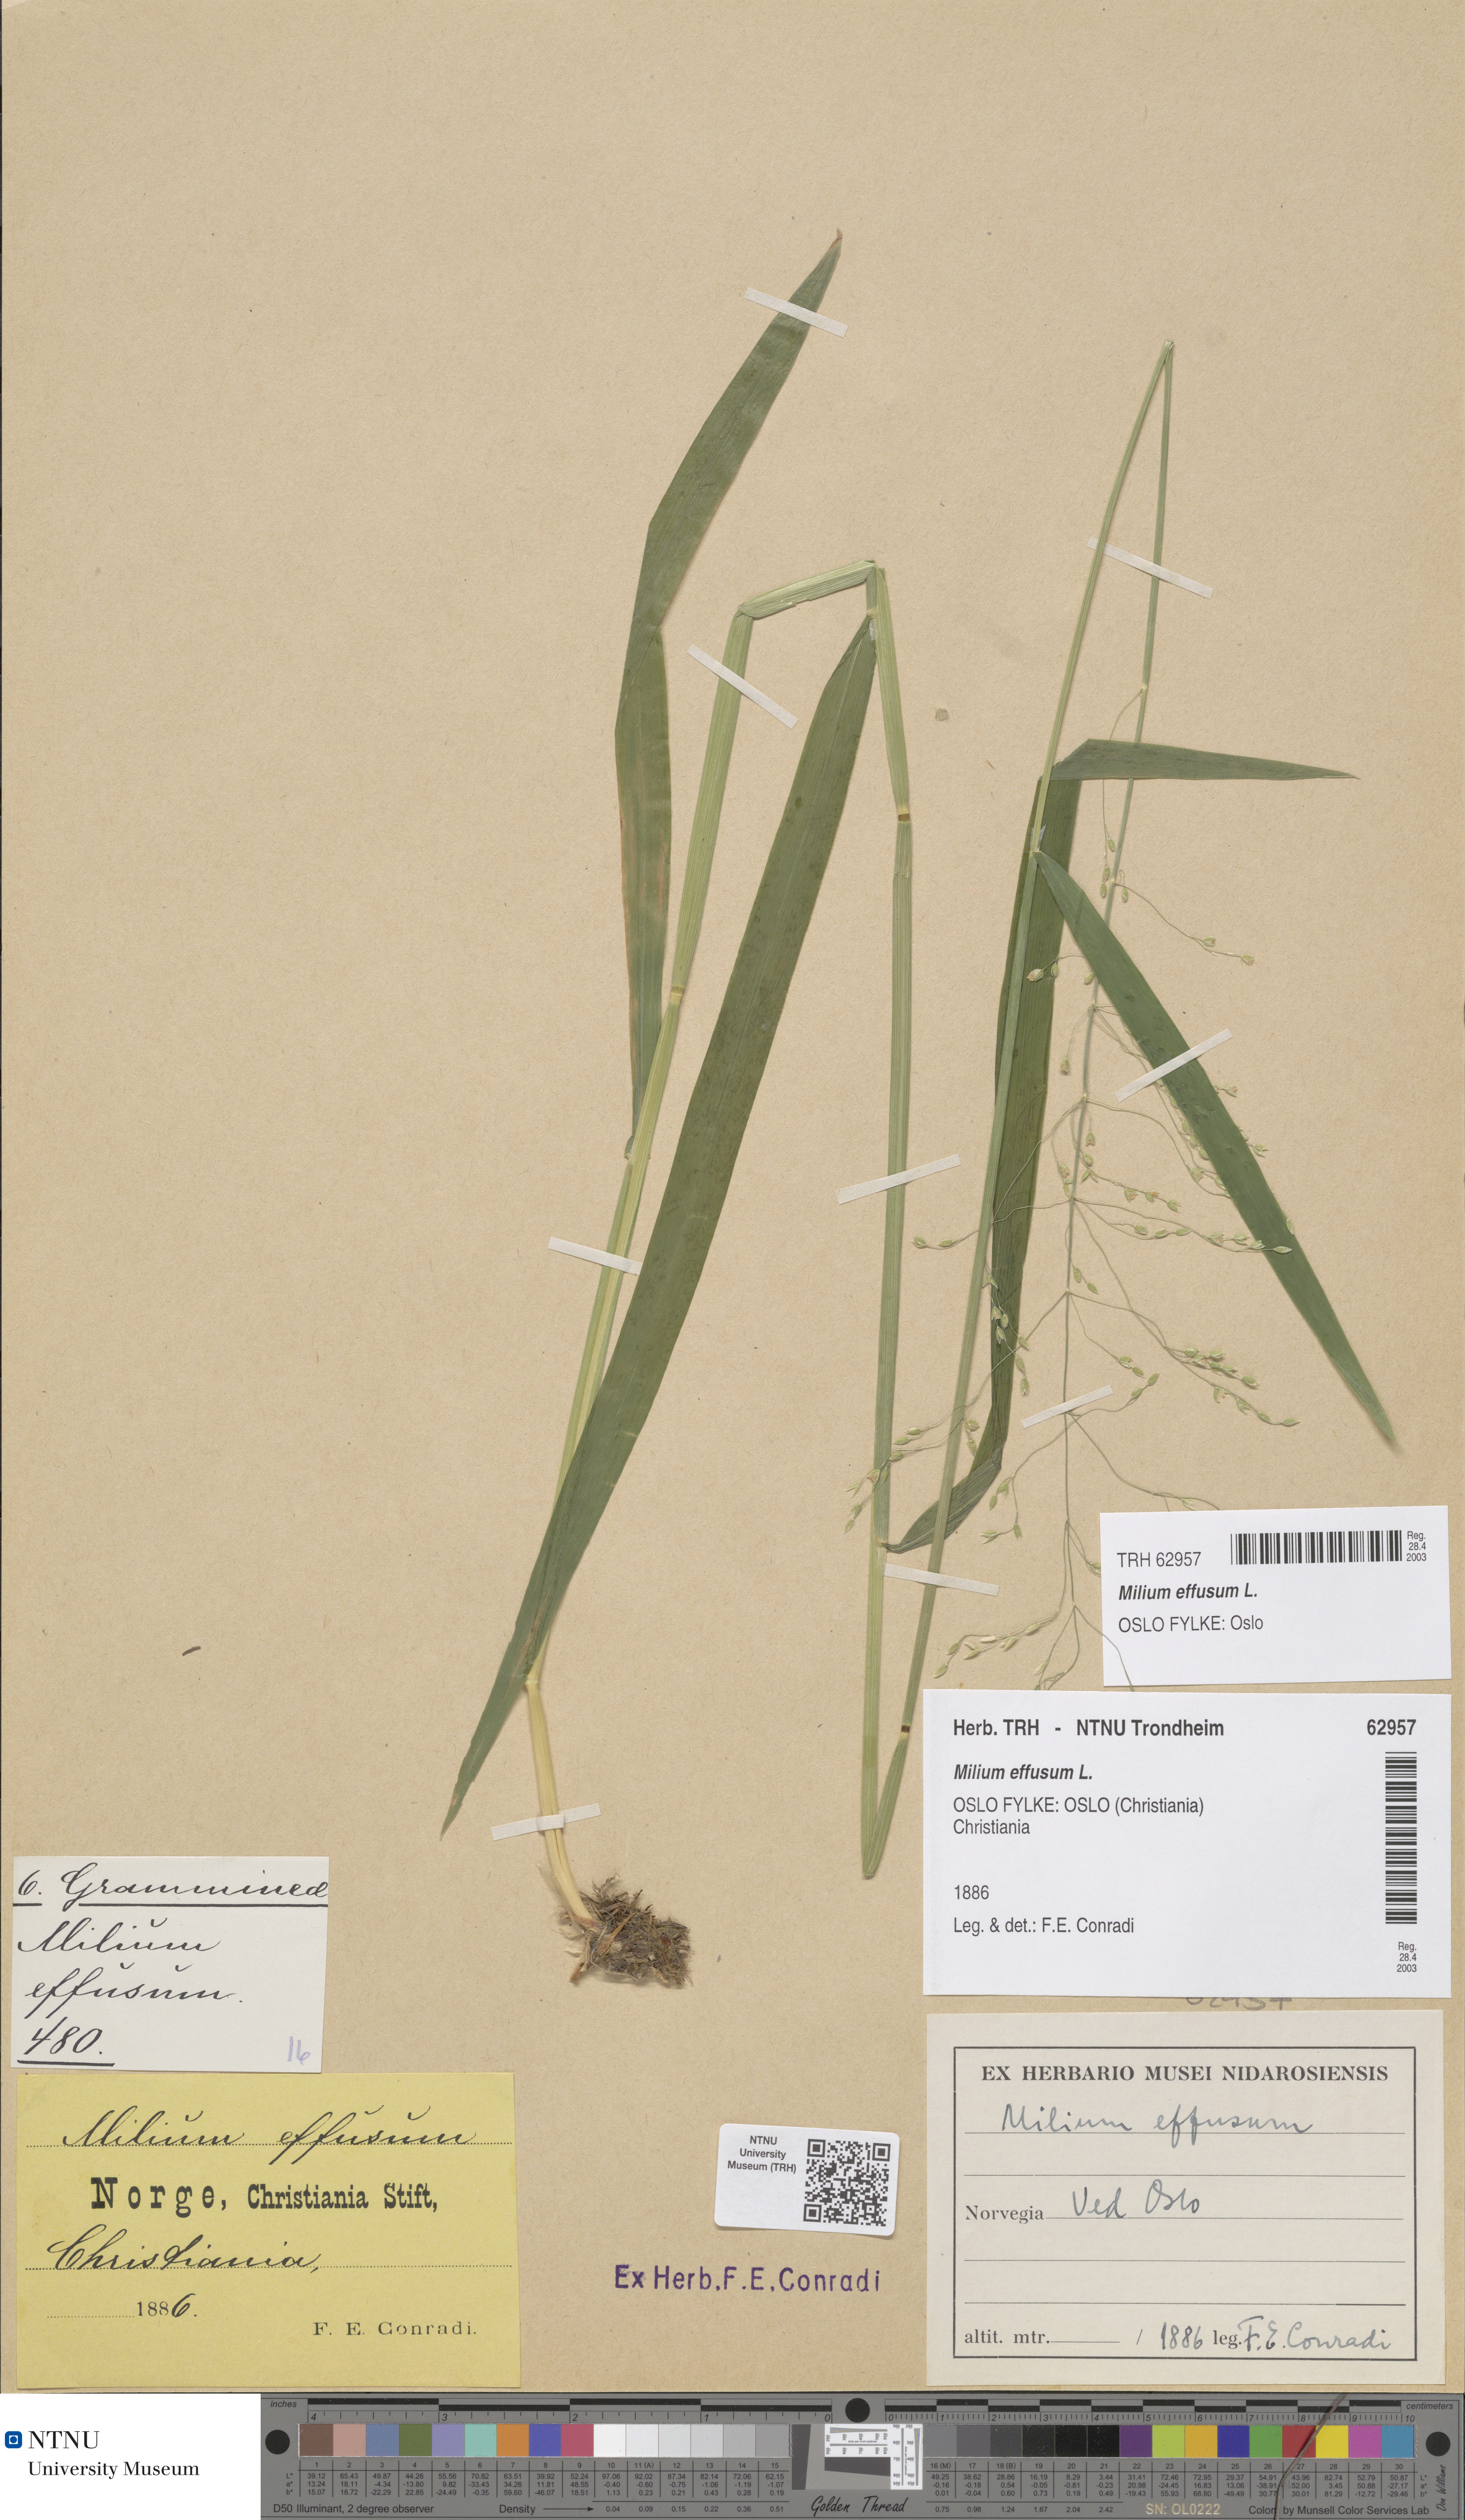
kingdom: Plantae
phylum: Tracheophyta
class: Liliopsida
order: Poales
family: Poaceae
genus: Milium
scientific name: Milium effusum
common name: Wood millet
